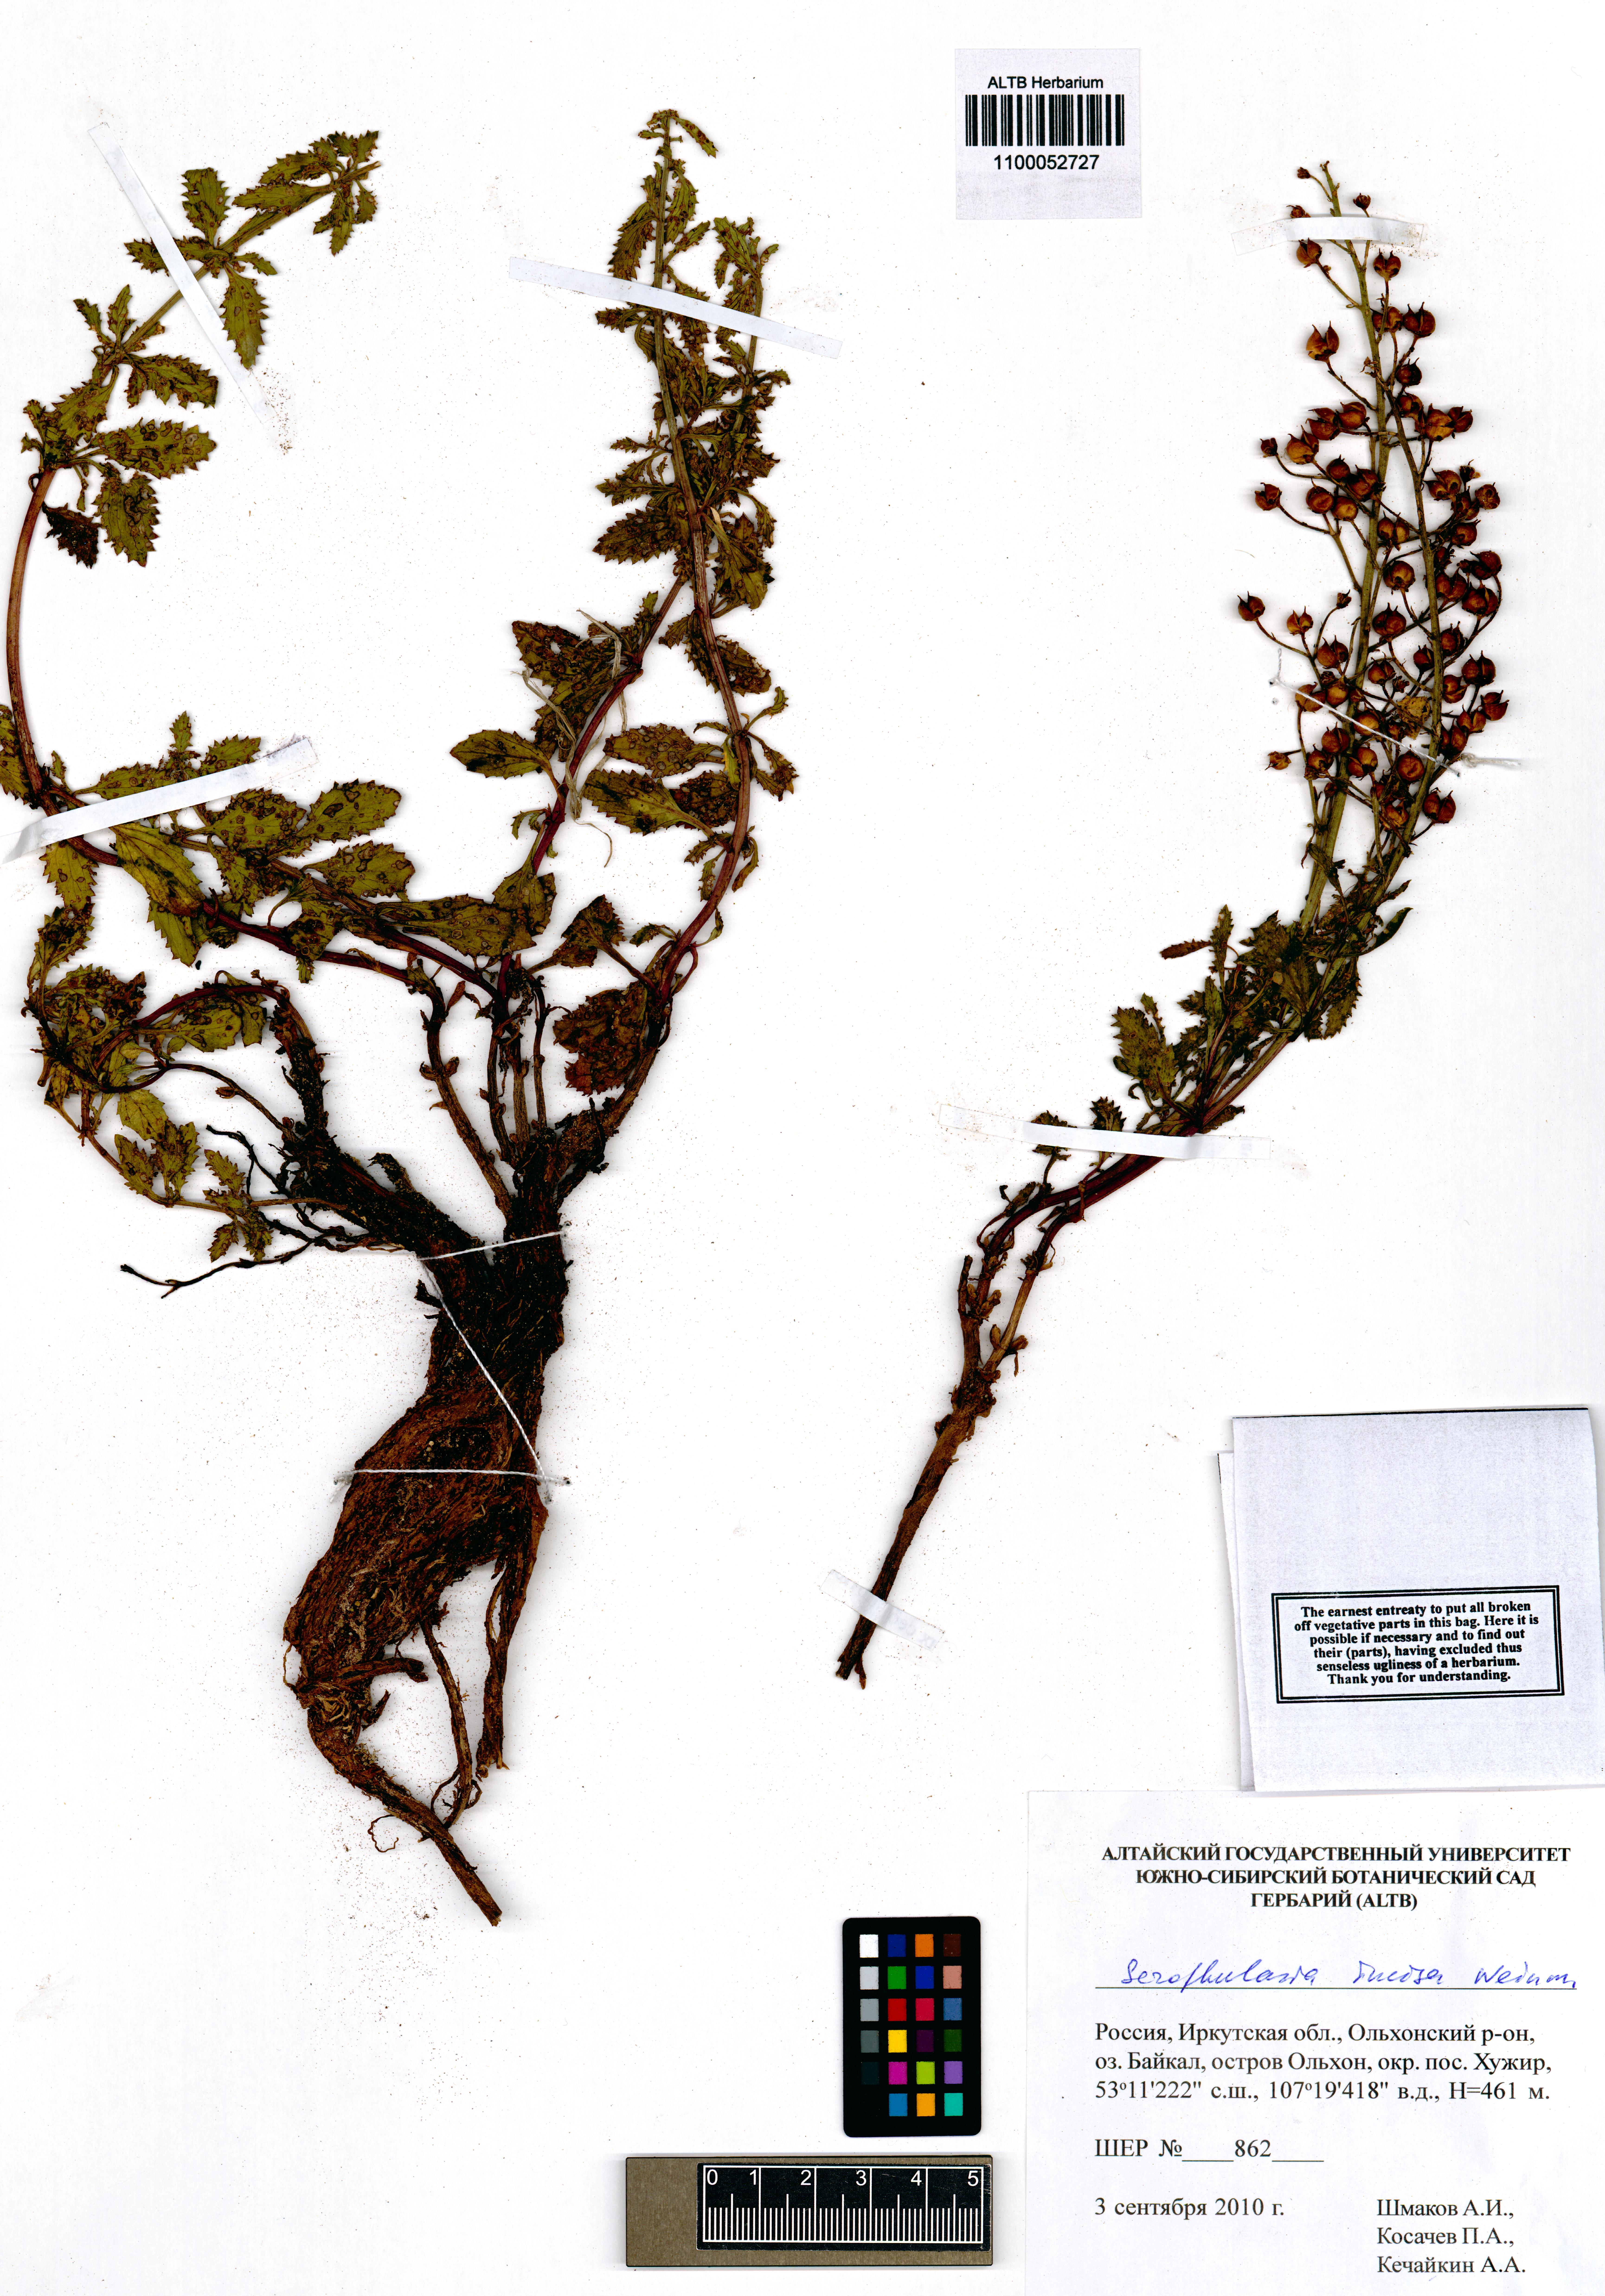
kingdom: Plantae
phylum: Tracheophyta
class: Magnoliopsida
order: Lamiales
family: Scrophulariaceae
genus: Scrophularia
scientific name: Scrophularia incisa
